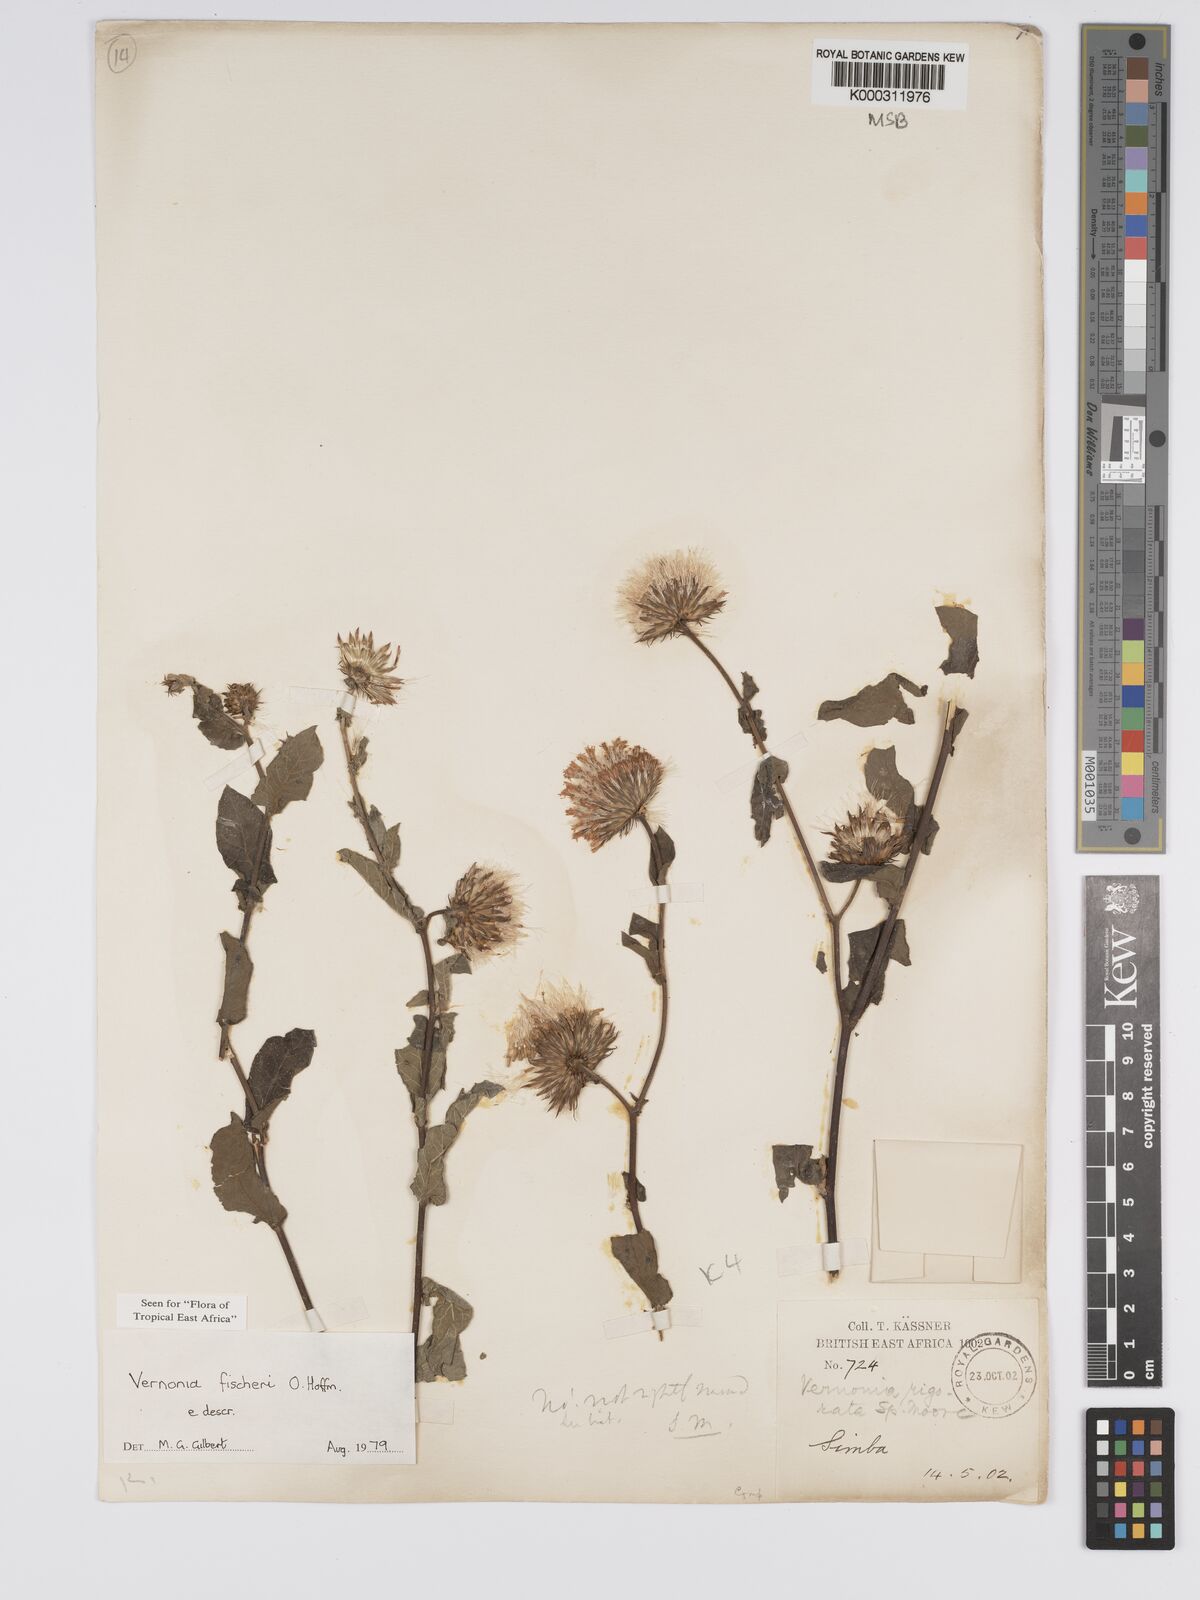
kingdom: Plantae
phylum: Tracheophyta
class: Magnoliopsida
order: Asterales
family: Asteraceae
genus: Vernonia
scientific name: Vernonia fischeri
